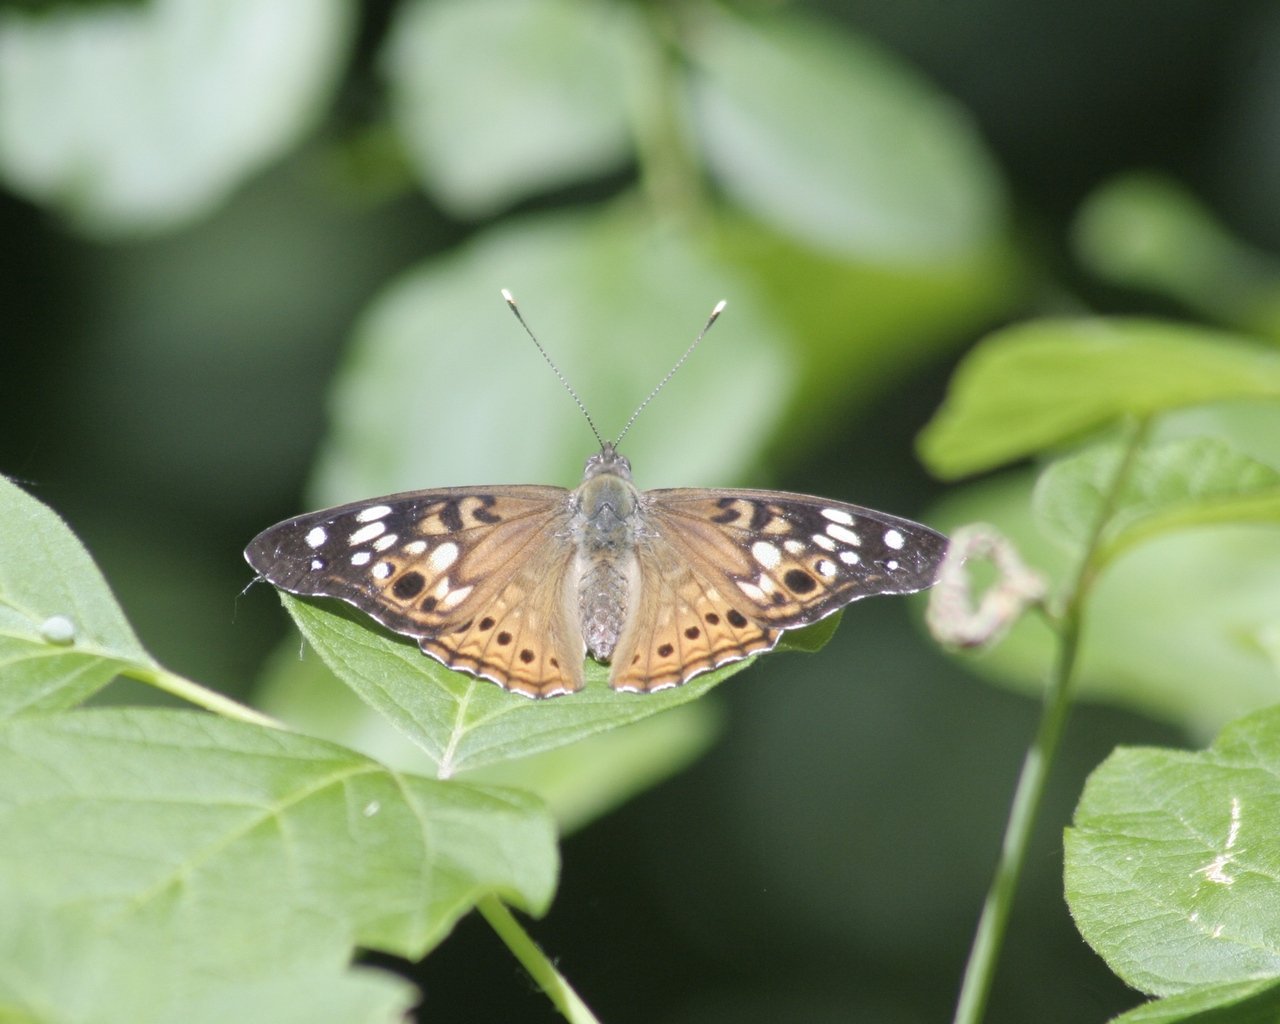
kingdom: Animalia
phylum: Arthropoda
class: Insecta
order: Lepidoptera
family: Nymphalidae
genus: Asterocampa
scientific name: Asterocampa celtis
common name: Hackberry Emperor
